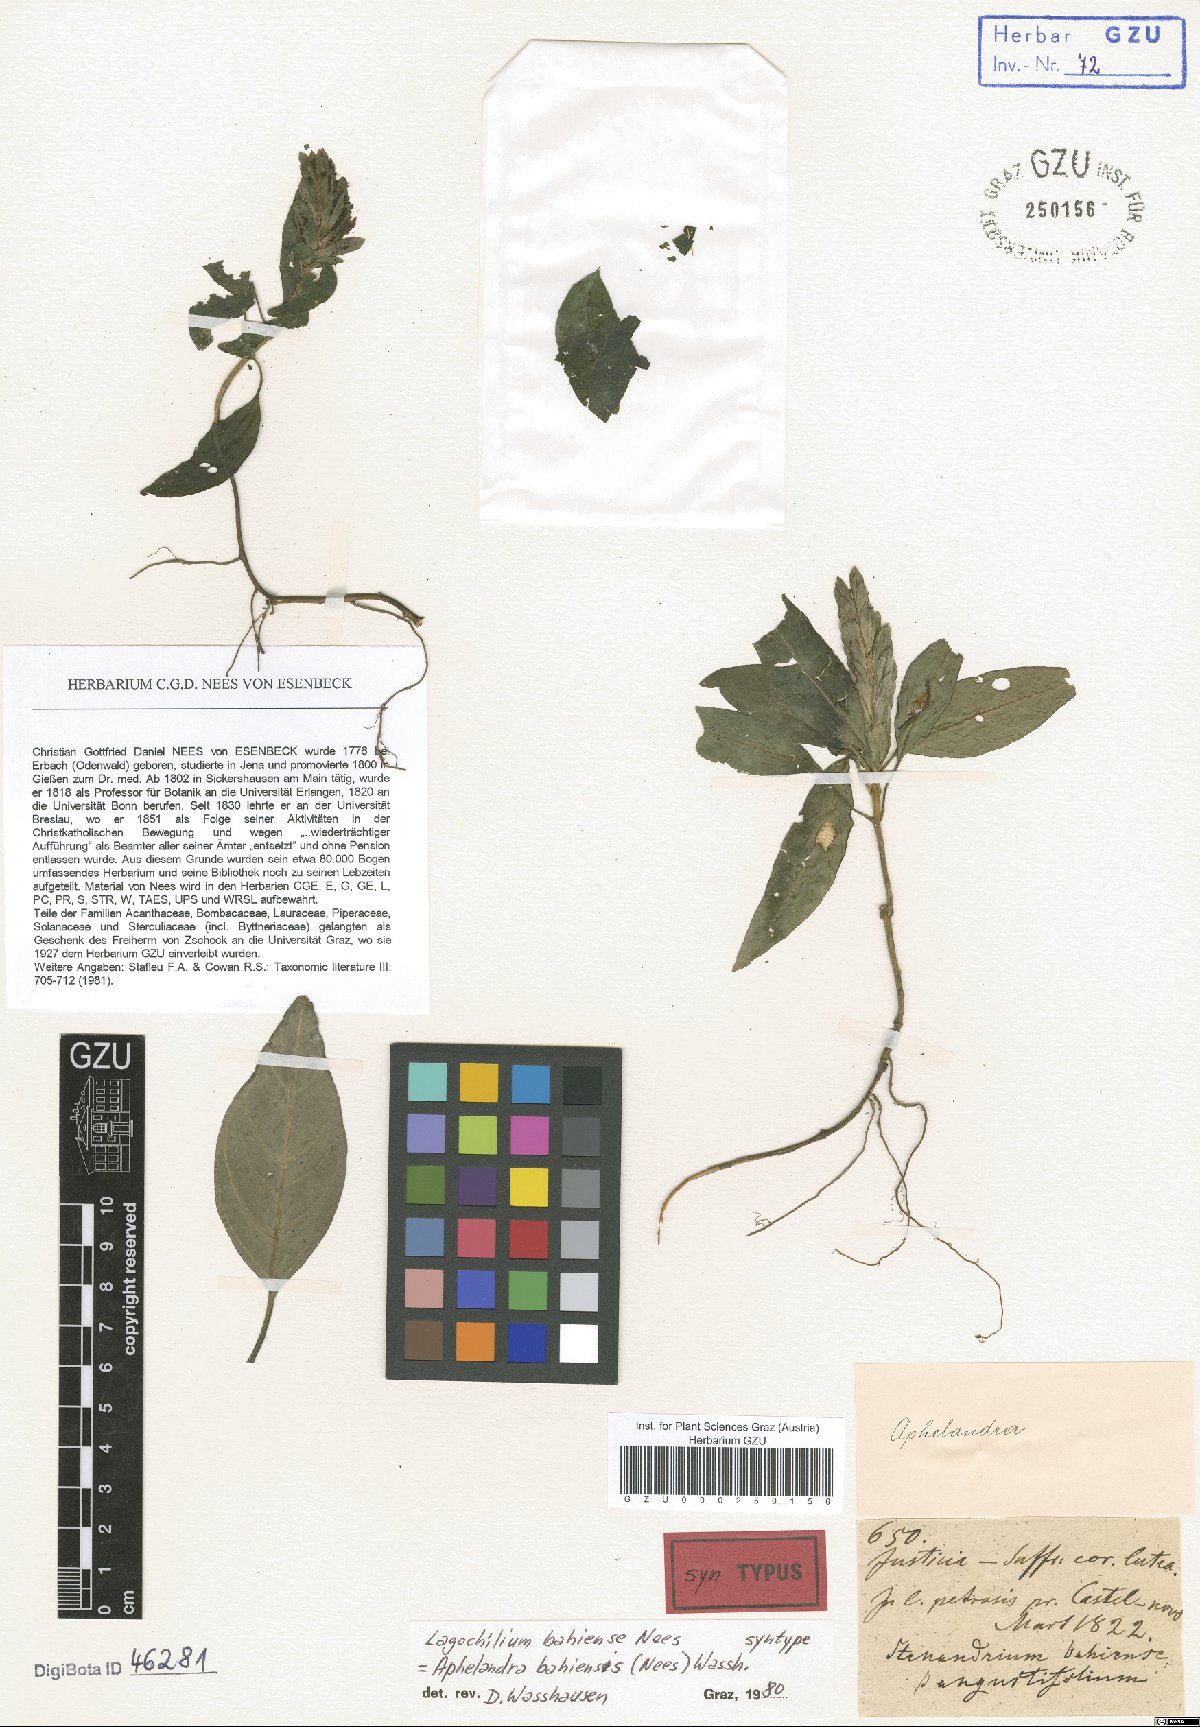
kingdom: Plantae
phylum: Tracheophyta
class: Magnoliopsida
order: Lamiales
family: Acanthaceae
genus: Aphelandra
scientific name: Aphelandra bahiensis
